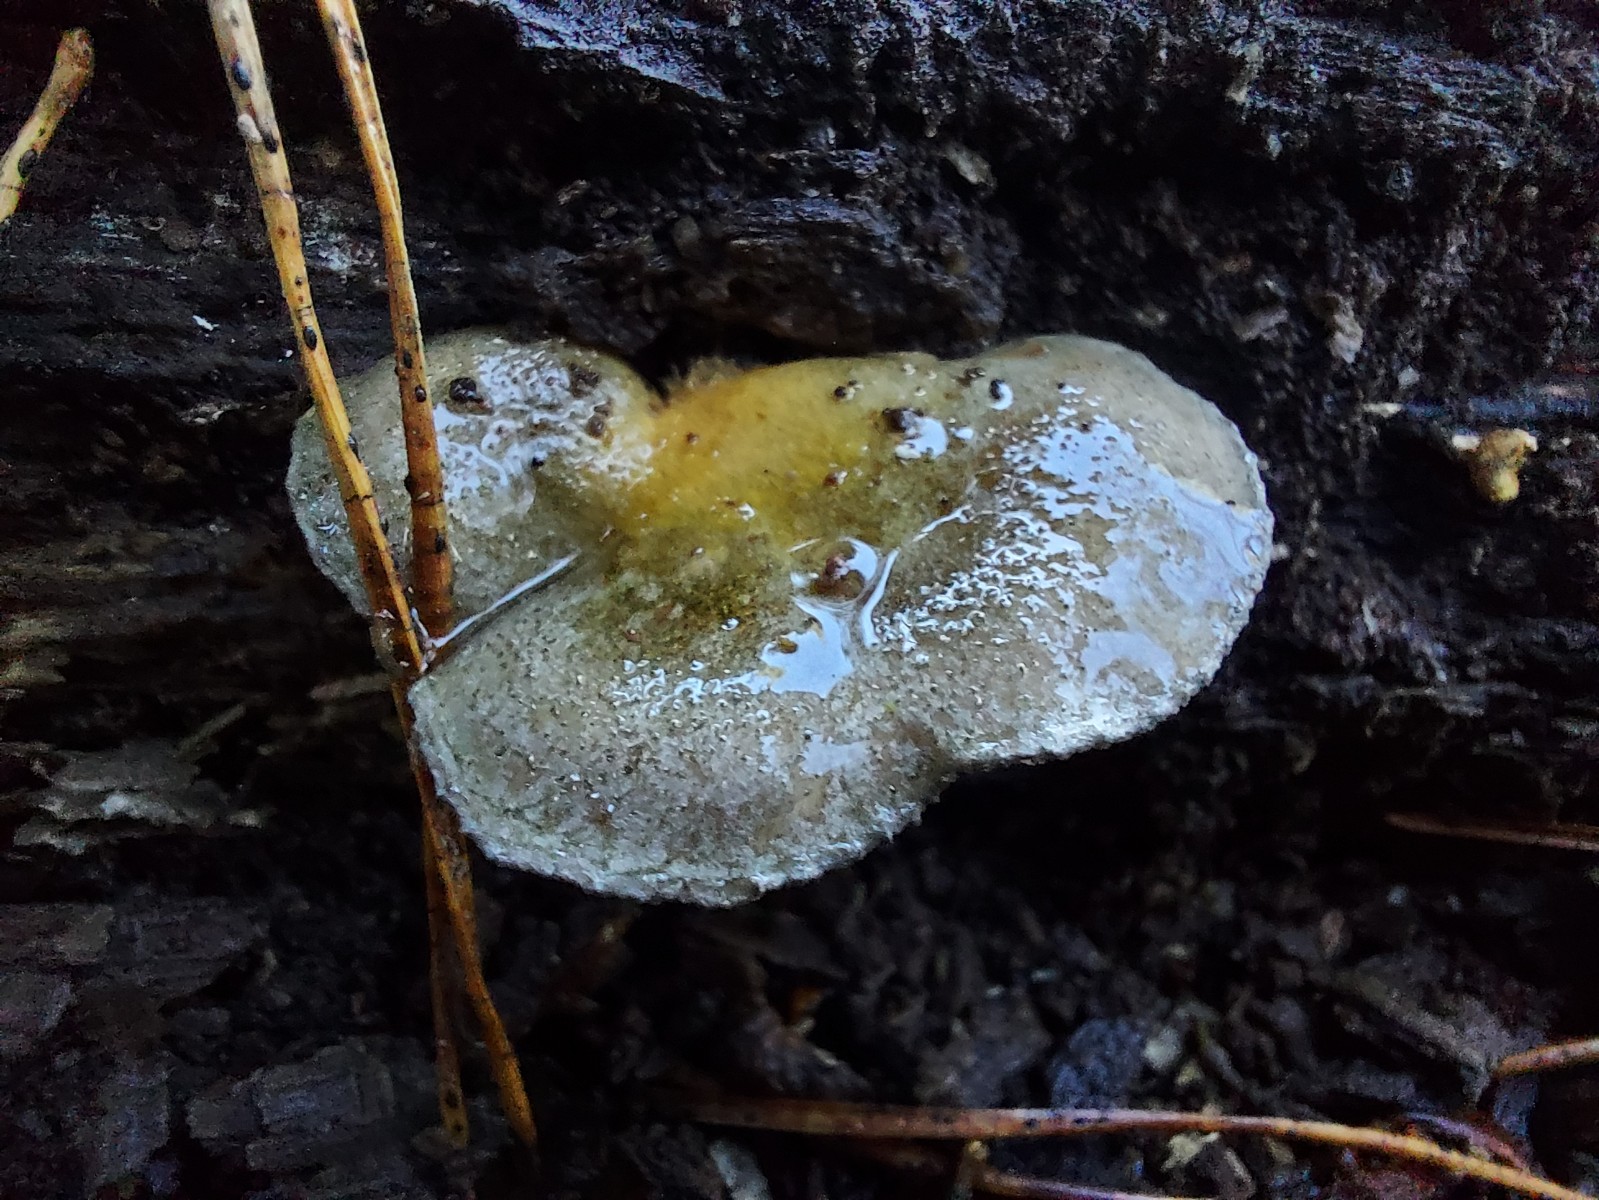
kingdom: Fungi
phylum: Basidiomycota
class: Agaricomycetes
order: Agaricales
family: Sarcomyxaceae
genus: Sarcomyxa
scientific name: Sarcomyxa serotina
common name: gummihat
